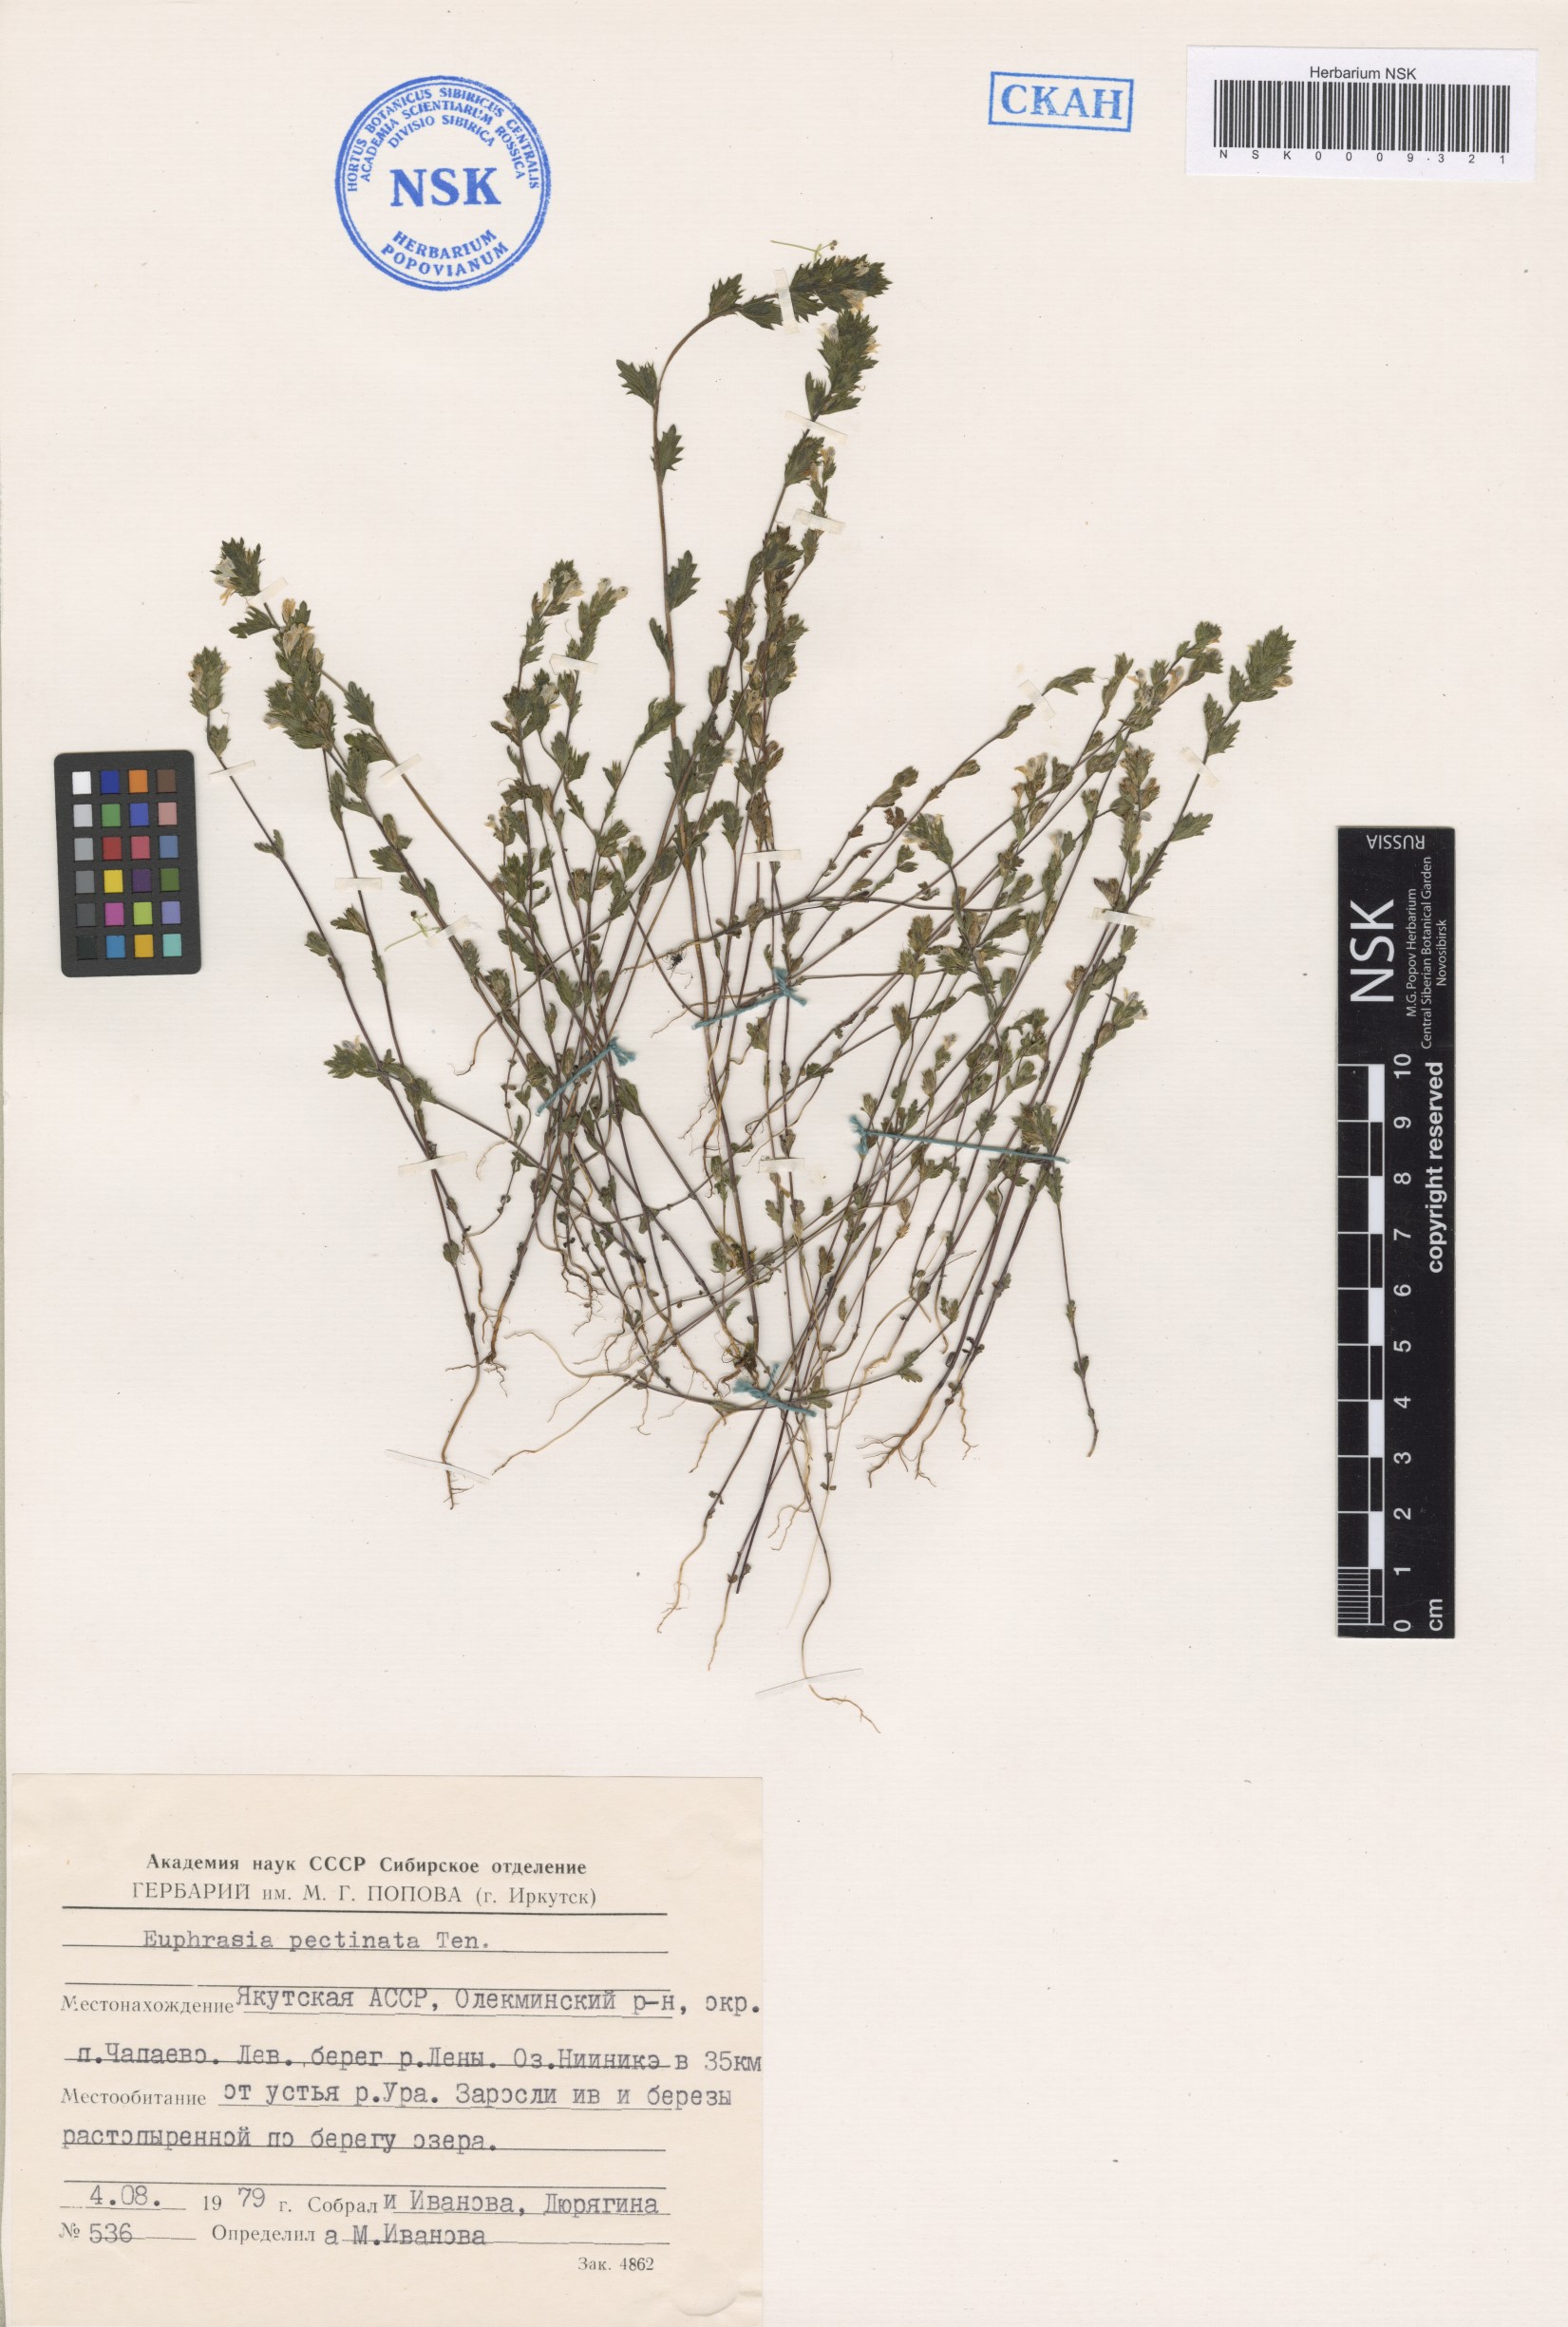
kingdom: Plantae
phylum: Tracheophyta
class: Magnoliopsida
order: Lamiales
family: Orobanchaceae
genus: Euphrasia
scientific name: Euphrasia pectinata
